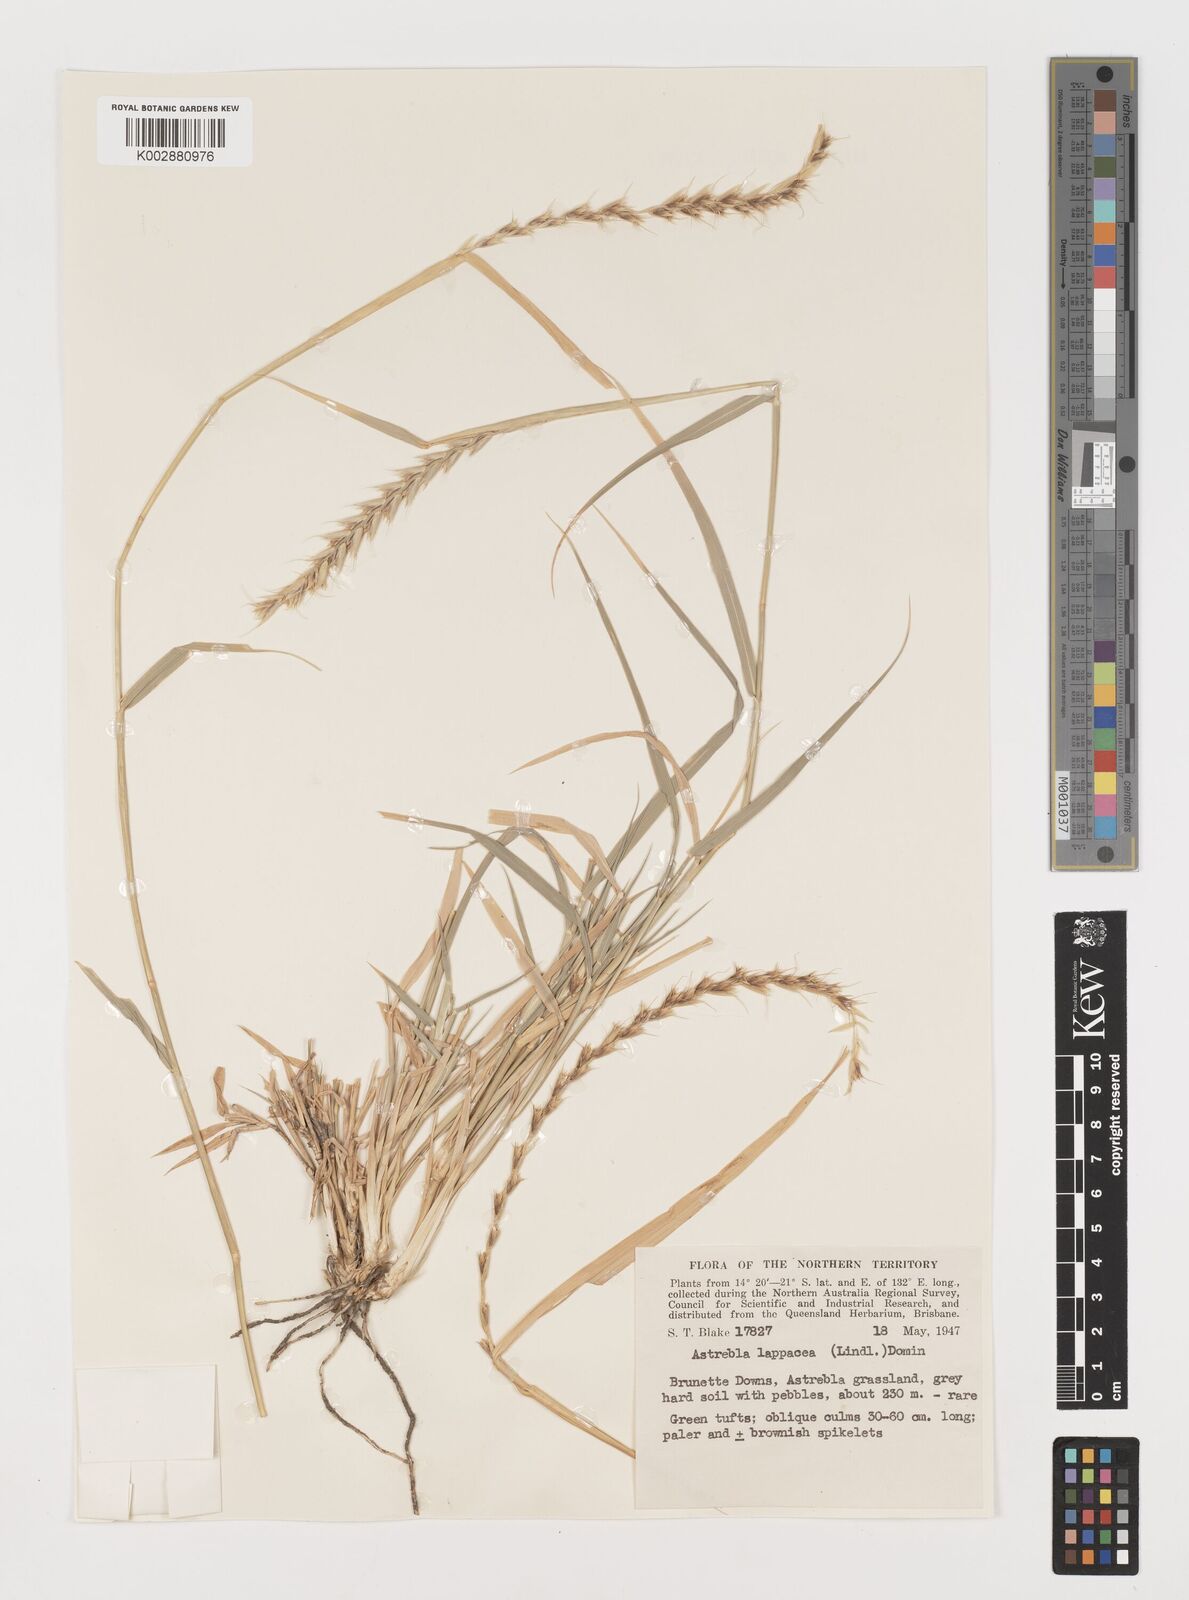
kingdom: Plantae
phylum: Tracheophyta
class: Liliopsida
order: Poales
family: Poaceae
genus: Astrebla
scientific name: Astrebla lappacea
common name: Curly mitchell grass
